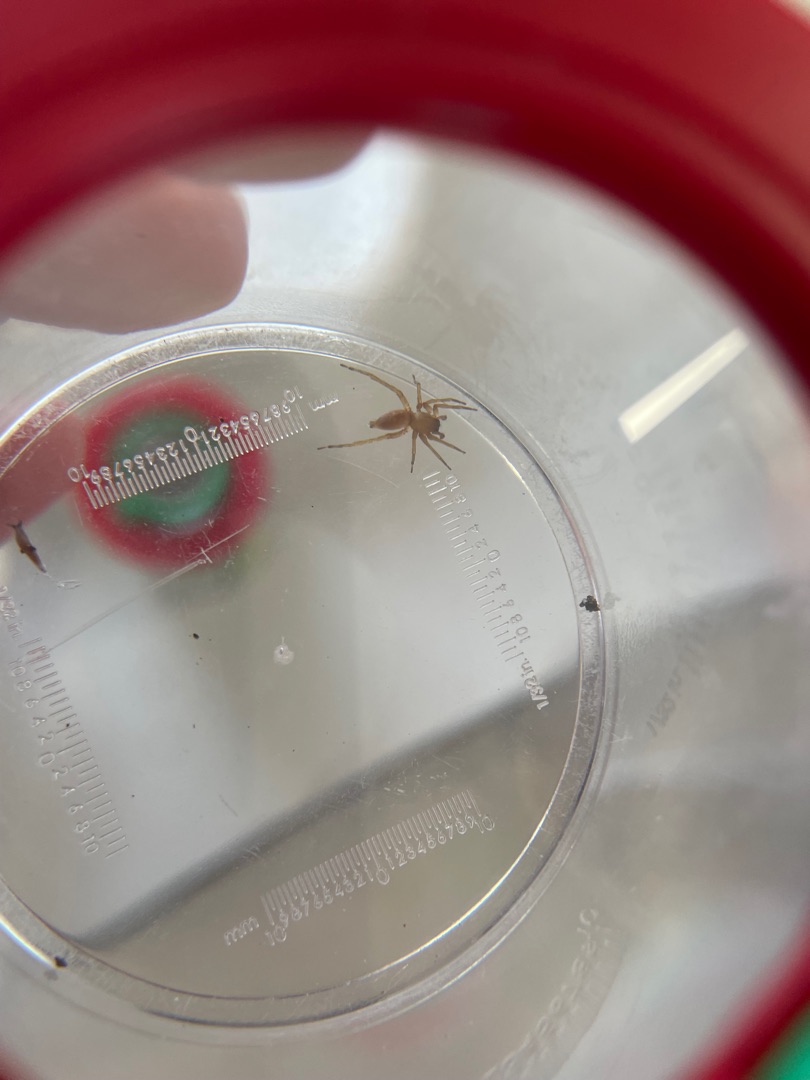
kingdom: Animalia
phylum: Arthropoda
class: Arachnida
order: Araneae
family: Clubionidae
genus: Clubiona
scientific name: Clubiona
